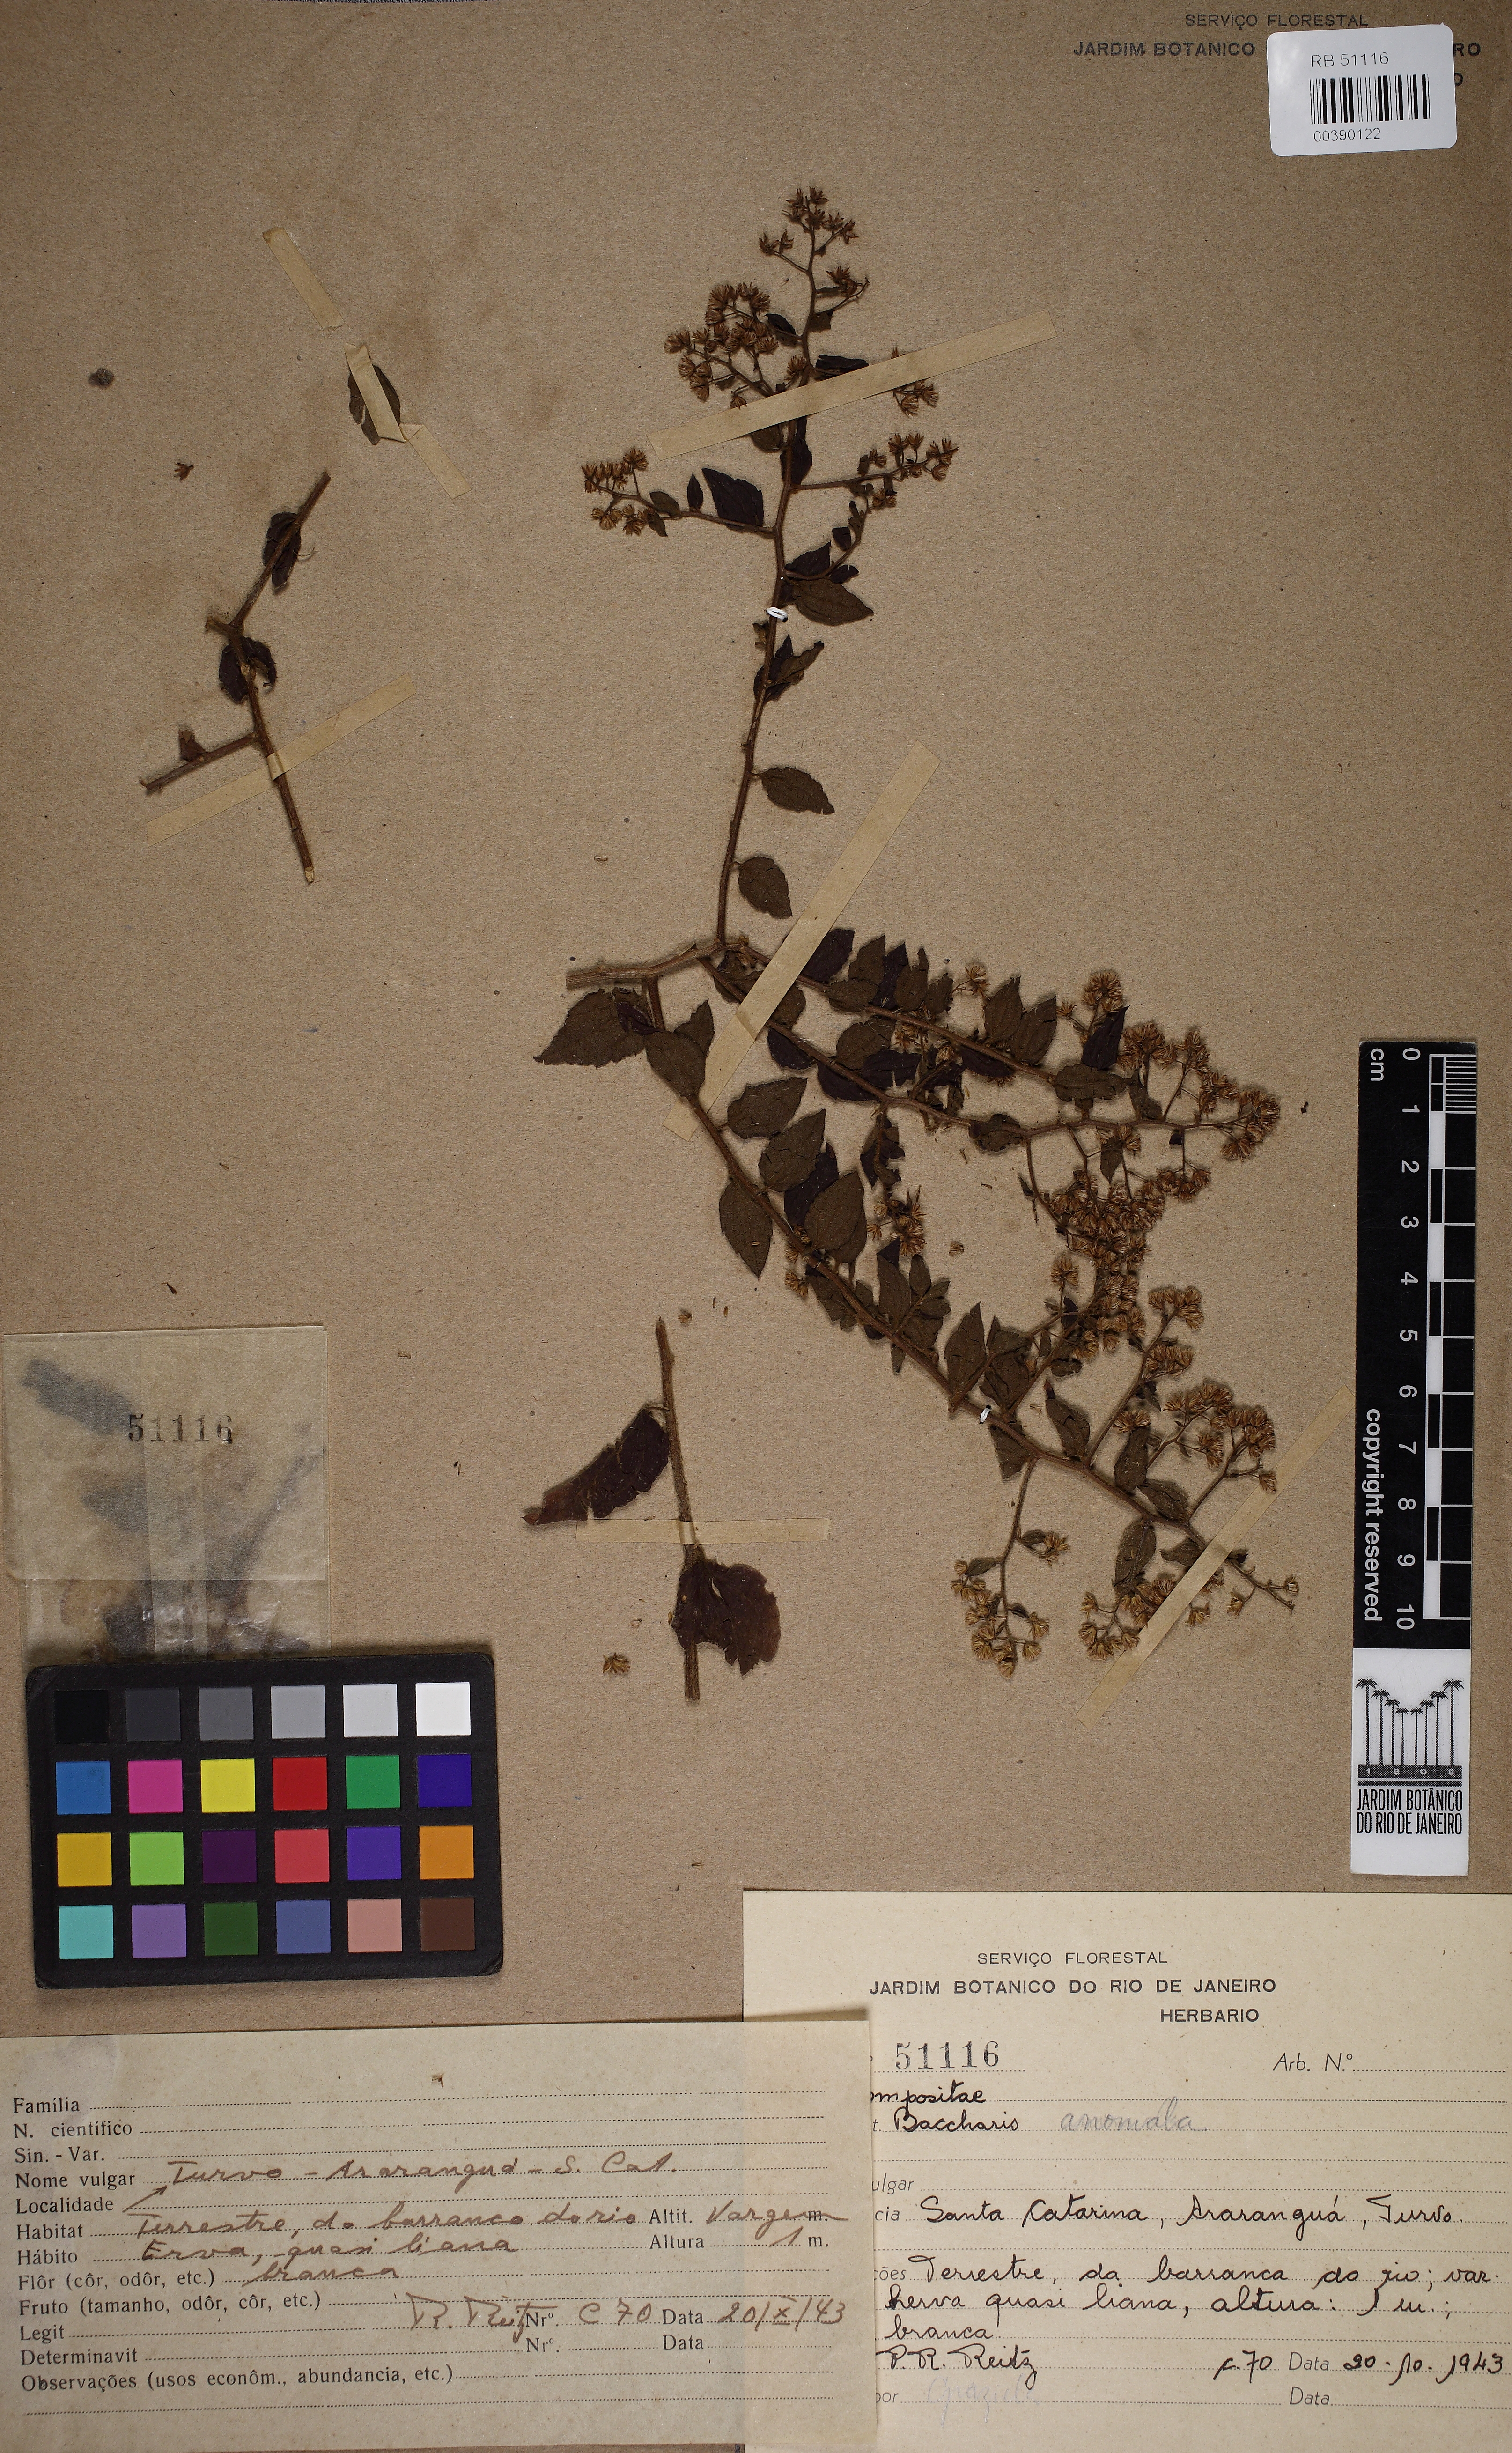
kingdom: Plantae
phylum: Tracheophyta
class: Magnoliopsida
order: Asterales
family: Asteraceae
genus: Baccharis
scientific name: Baccharis anomala
